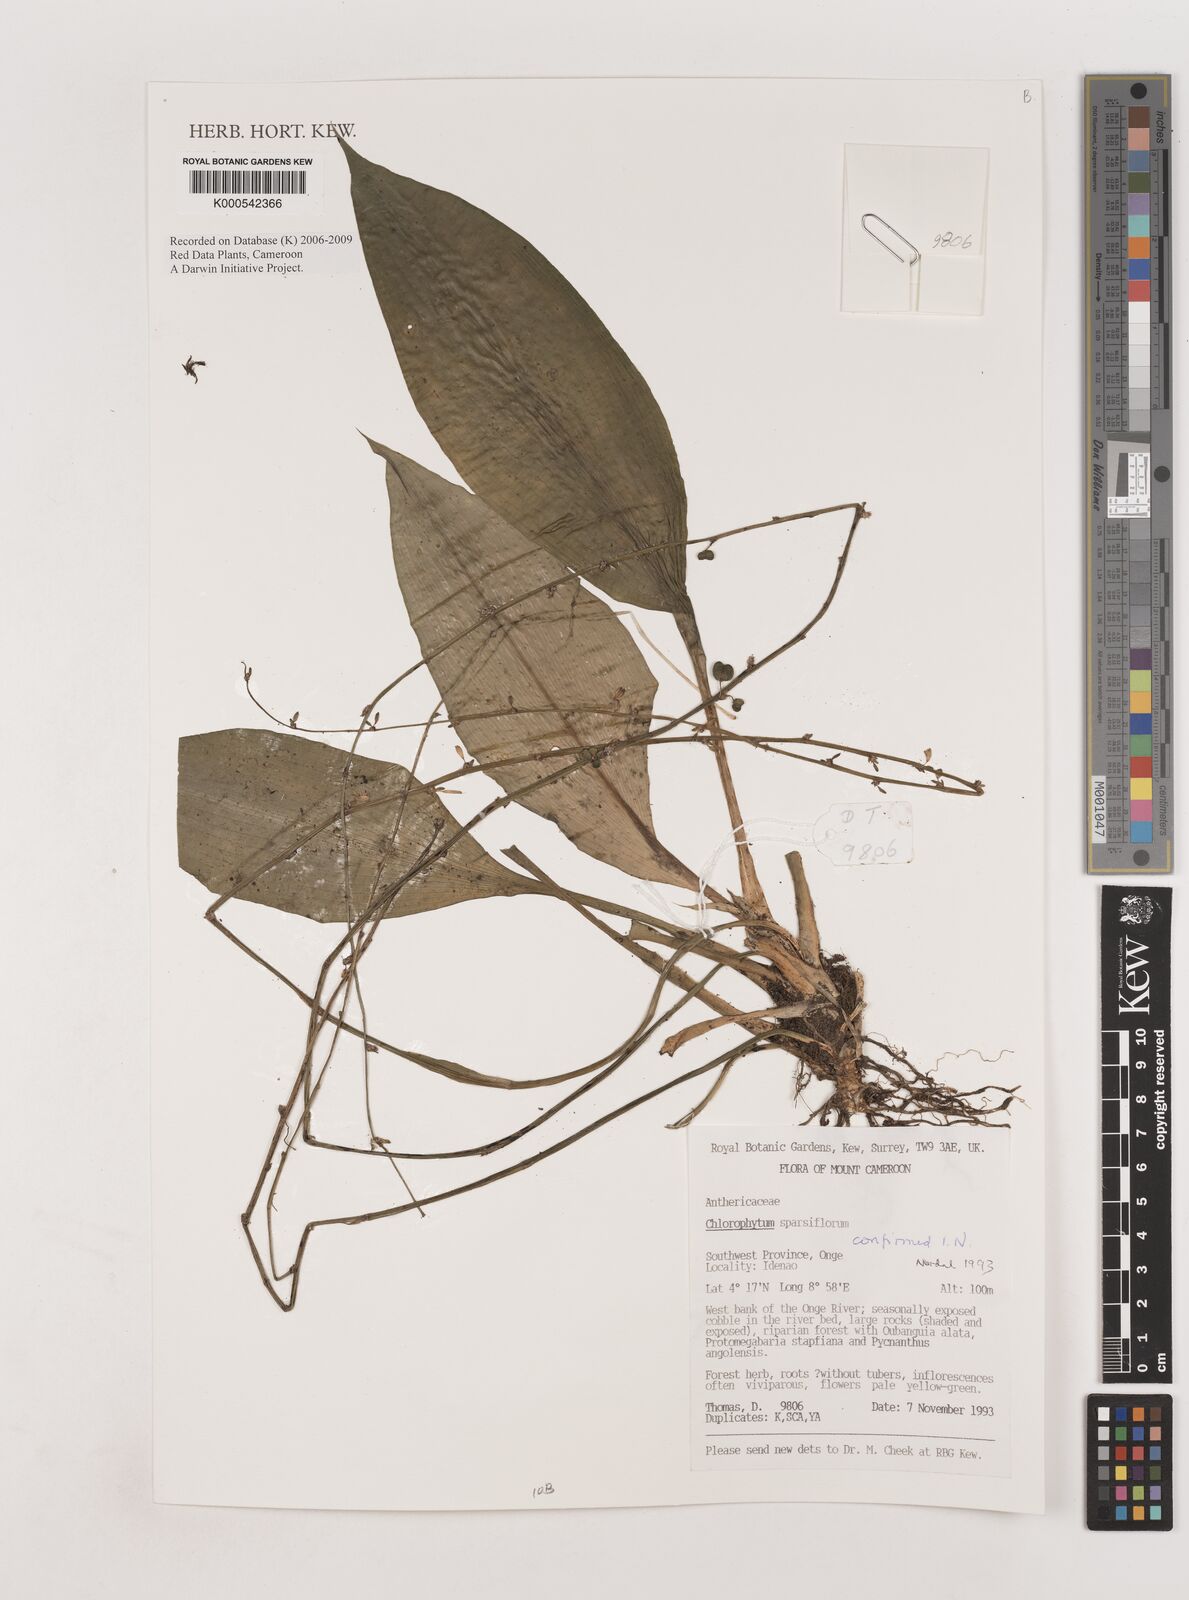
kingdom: Plantae
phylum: Tracheophyta
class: Liliopsida
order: Asparagales
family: Asparagaceae
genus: Chlorophytum
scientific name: Chlorophytum sparsiflorum
